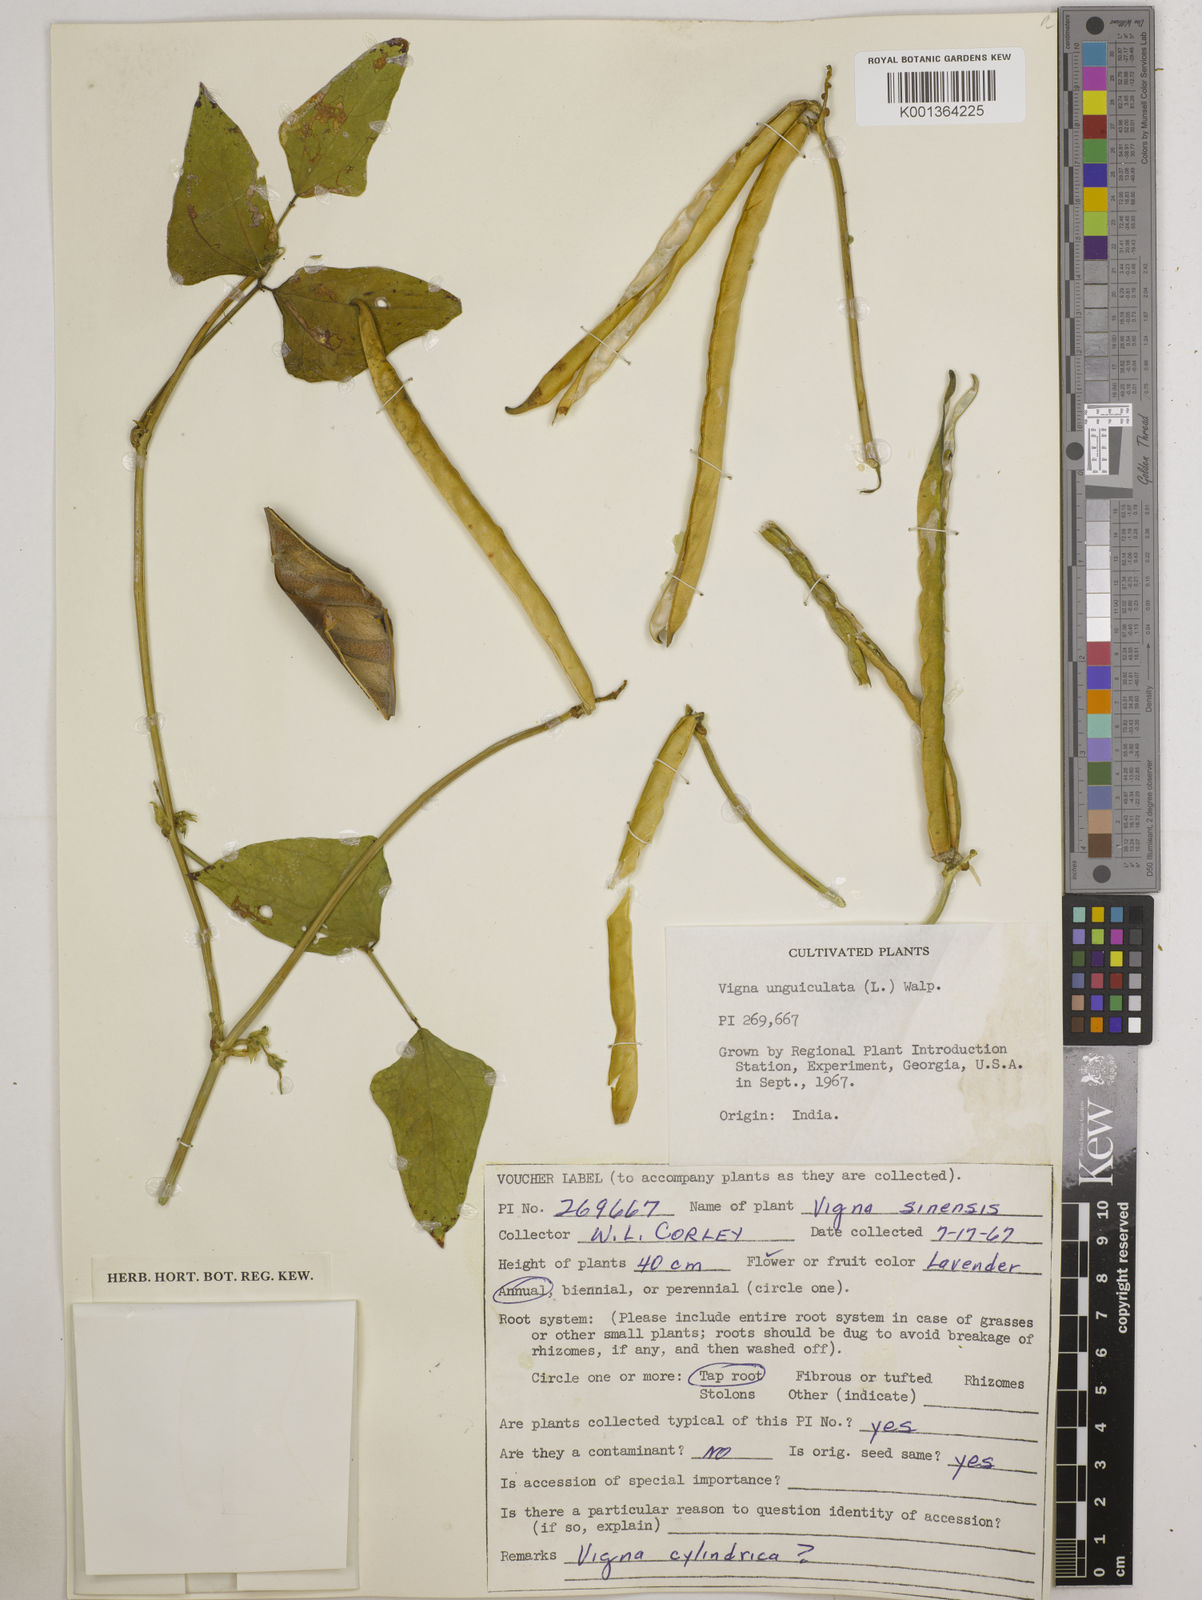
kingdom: Plantae
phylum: Tracheophyta
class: Magnoliopsida
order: Fabales
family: Fabaceae
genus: Vigna
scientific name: Vigna
